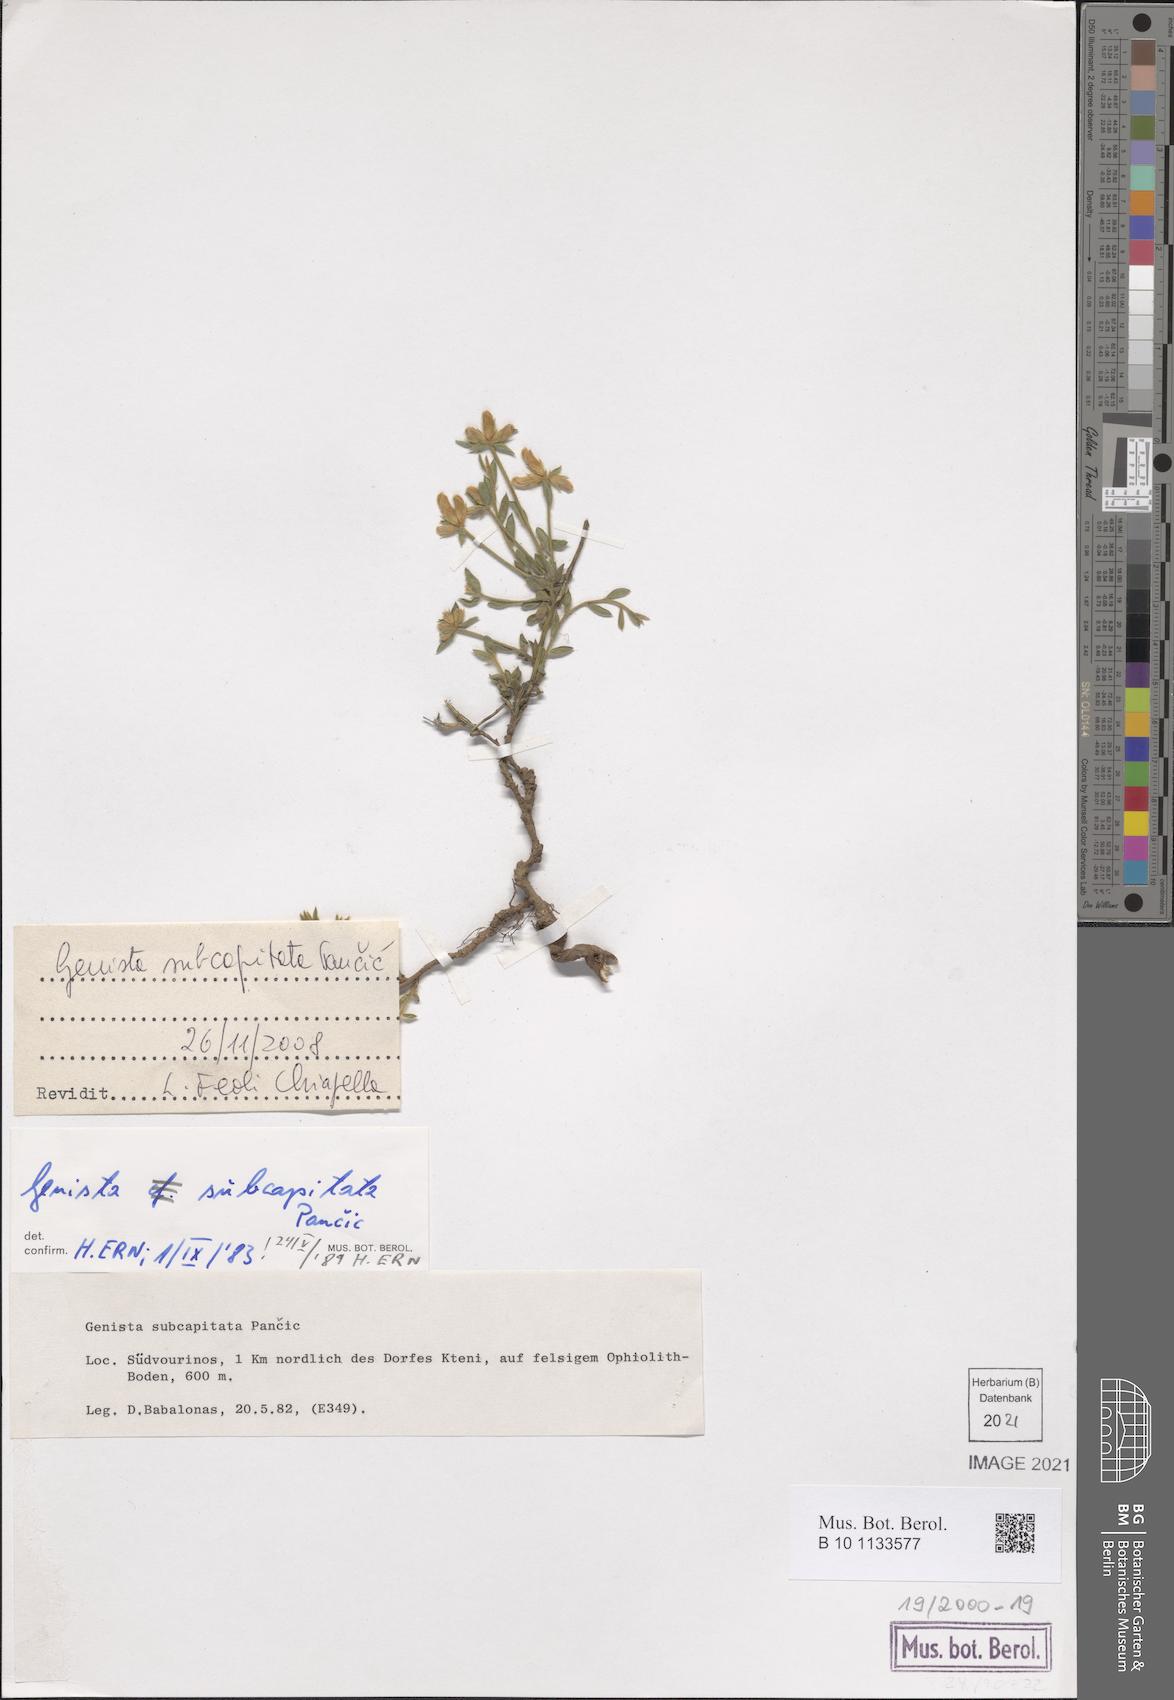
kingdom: Plantae
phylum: Tracheophyta
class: Magnoliopsida
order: Fabales
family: Fabaceae
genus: Genista
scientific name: Genista subcapitata
